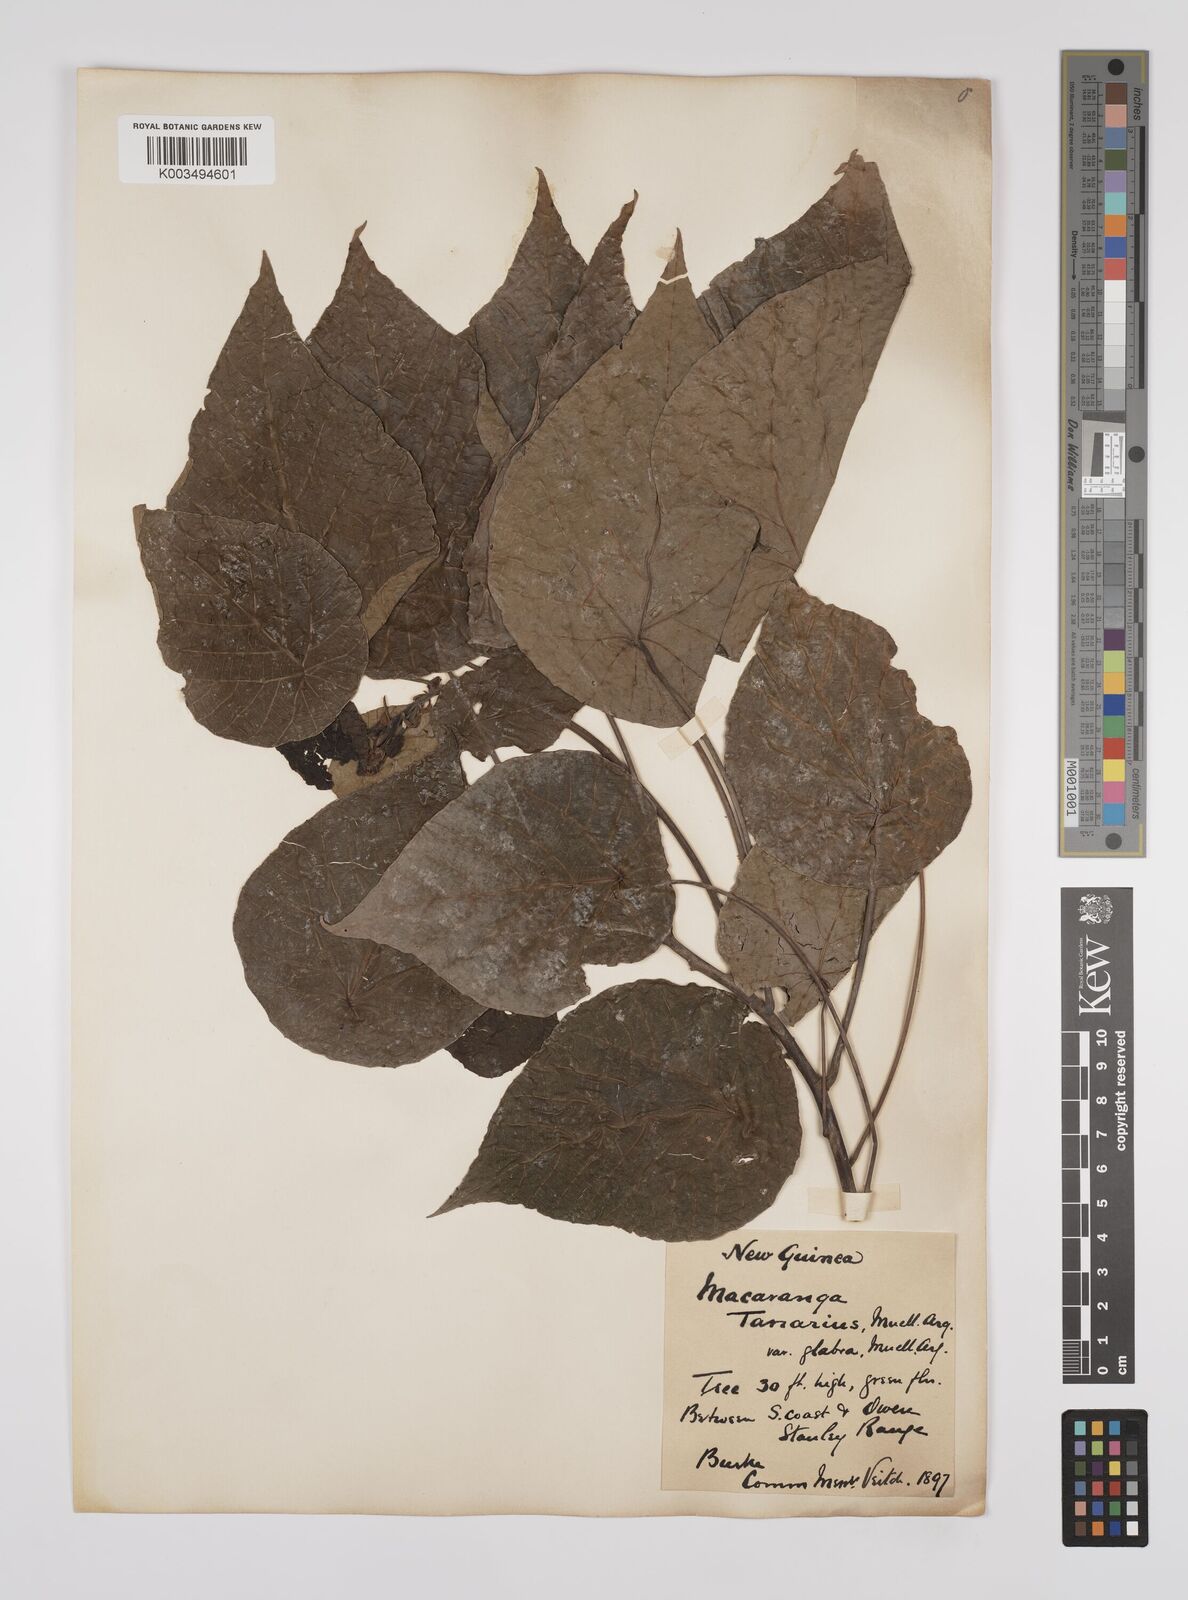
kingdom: Plantae
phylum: Tracheophyta
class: Magnoliopsida
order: Malpighiales
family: Euphorbiaceae
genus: Macaranga
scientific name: Macaranga tanarius
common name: Parasol leaf tree
